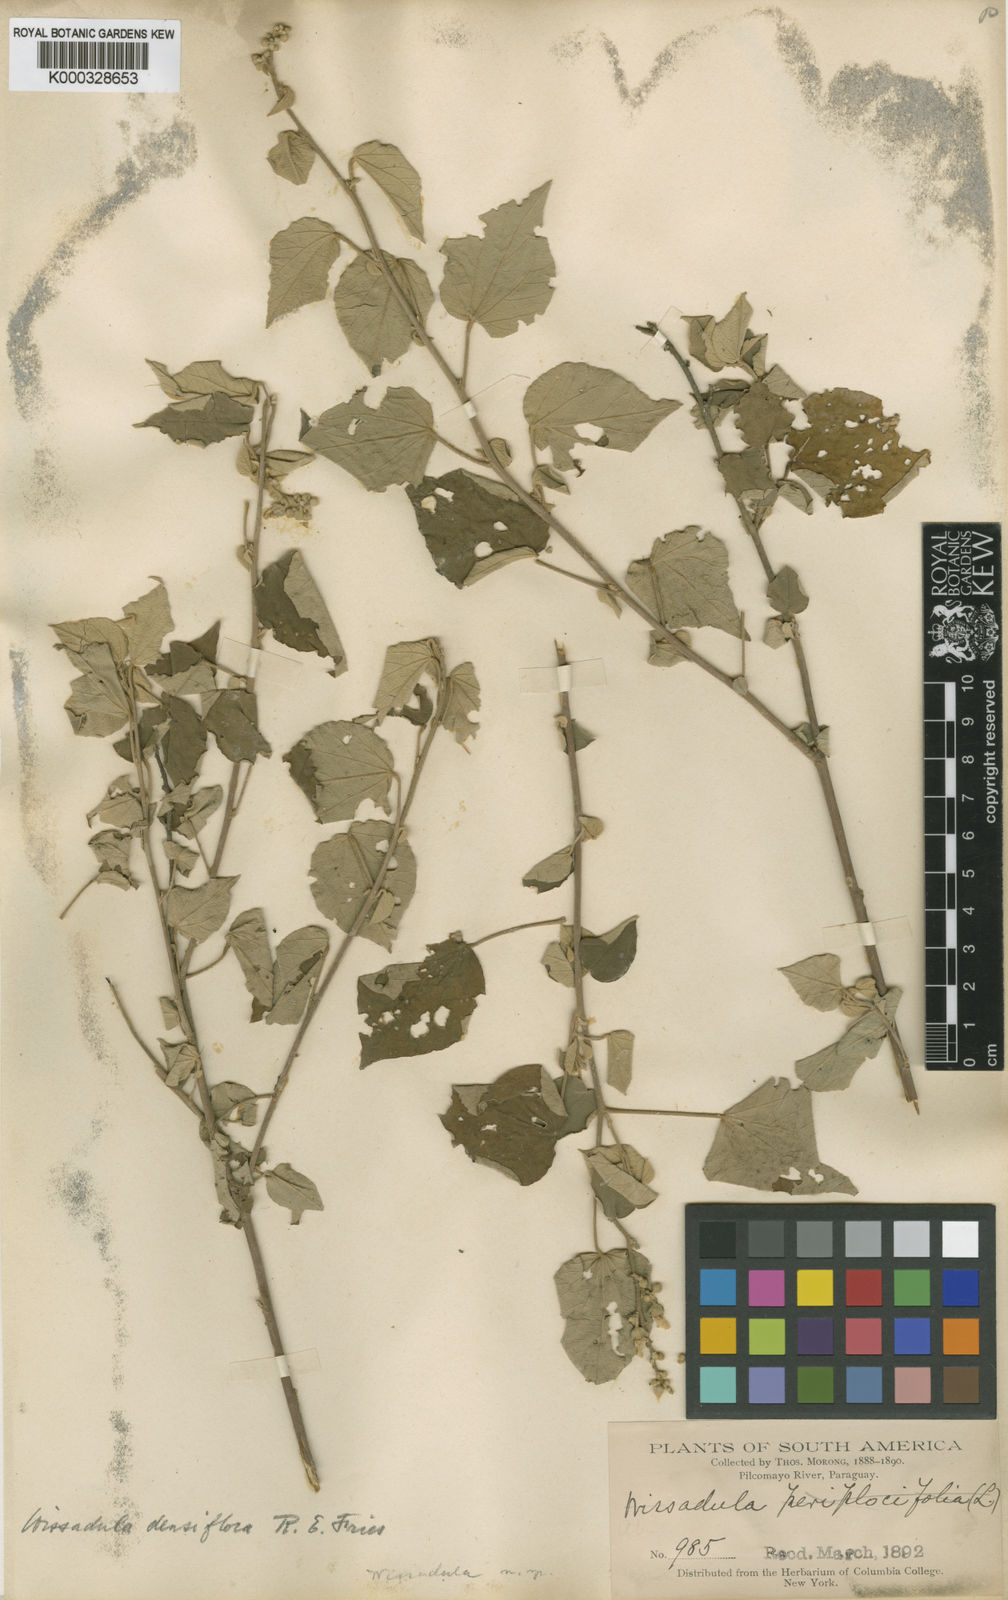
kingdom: Plantae
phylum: Tracheophyta
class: Magnoliopsida
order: Malvales
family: Malvaceae
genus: Wissadula
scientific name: Wissadula densiflora
